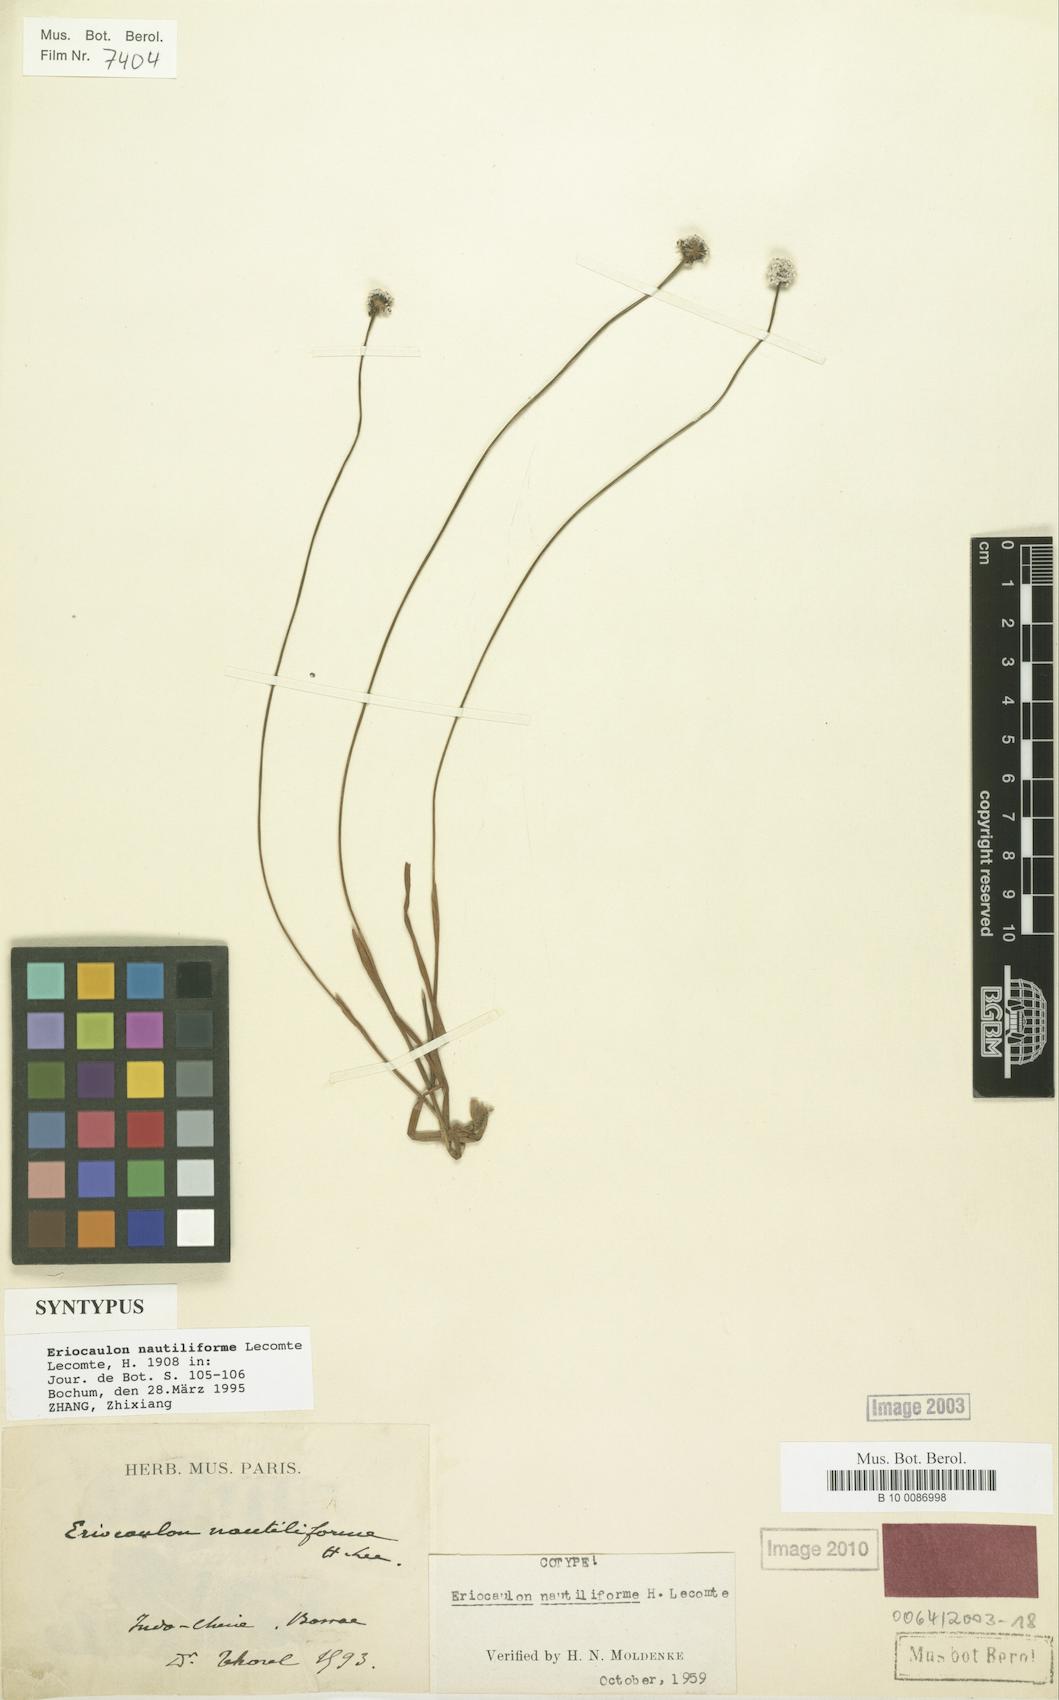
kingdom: Plantae
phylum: Tracheophyta
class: Liliopsida
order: Poales
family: Eriocaulaceae
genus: Eriocaulon
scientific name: Eriocaulon nautiliforme
